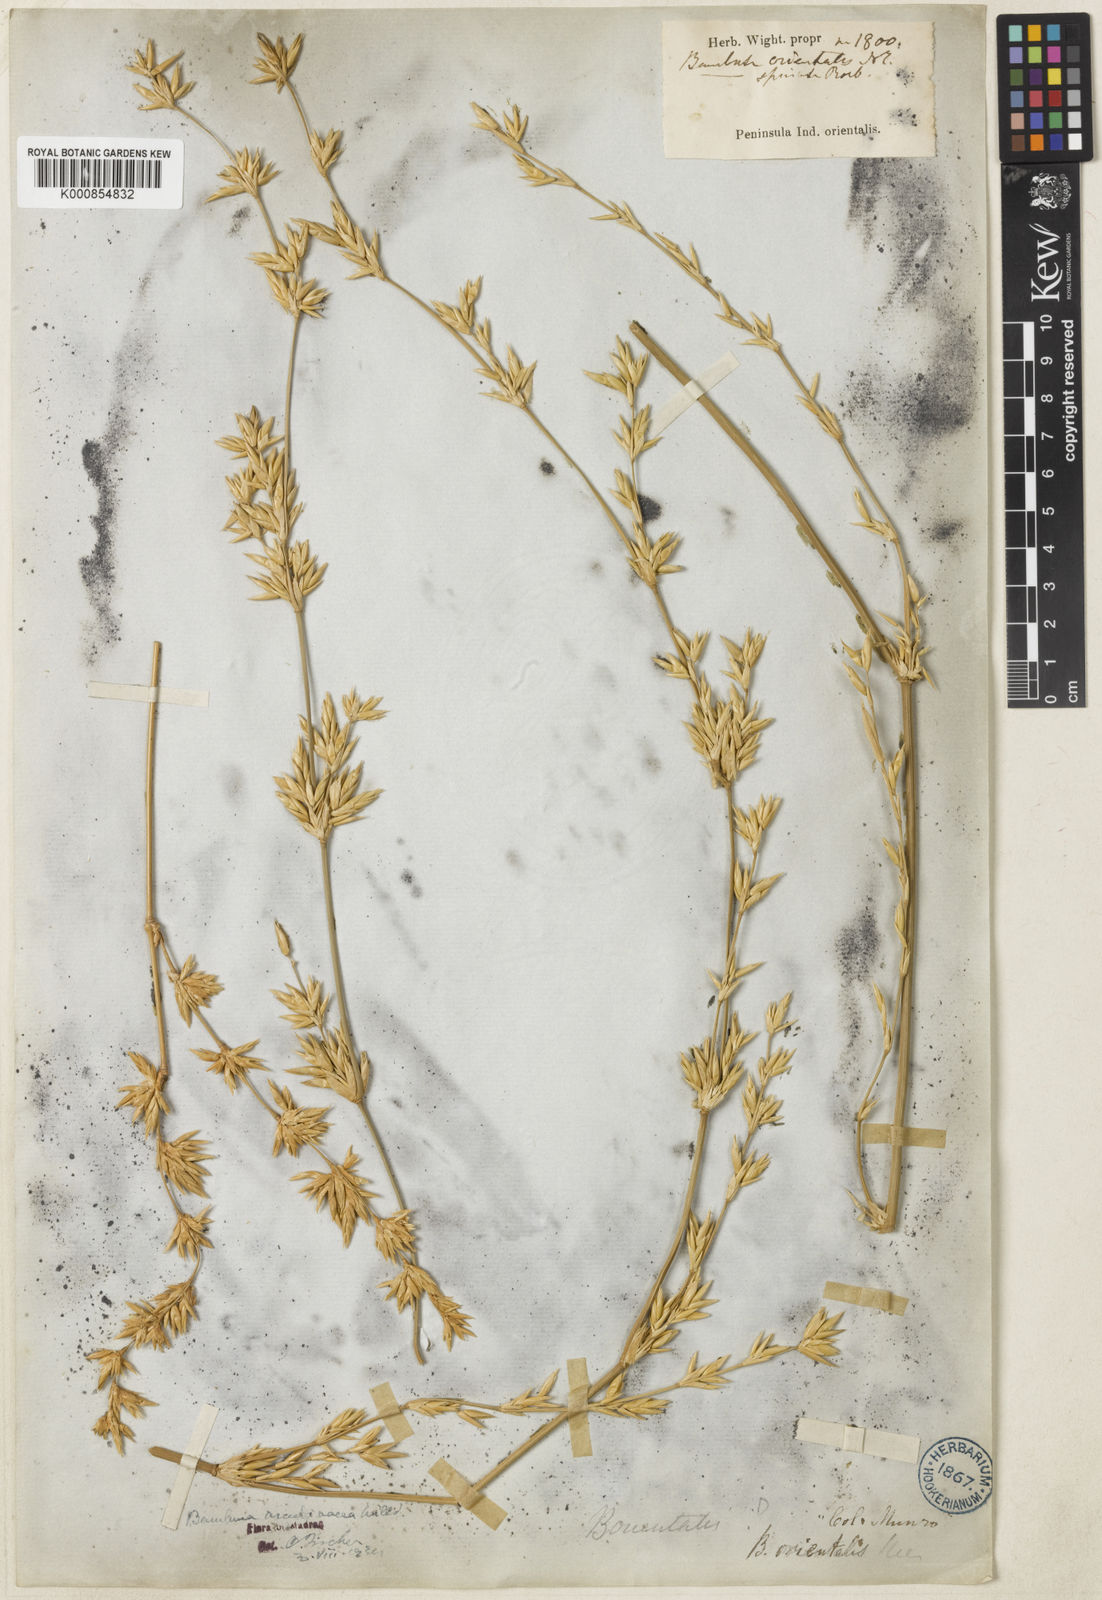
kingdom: Plantae
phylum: Tracheophyta
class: Liliopsida
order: Poales
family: Poaceae
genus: Bambusa
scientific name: Bambusa bambos
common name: Indian thorny bamboo
